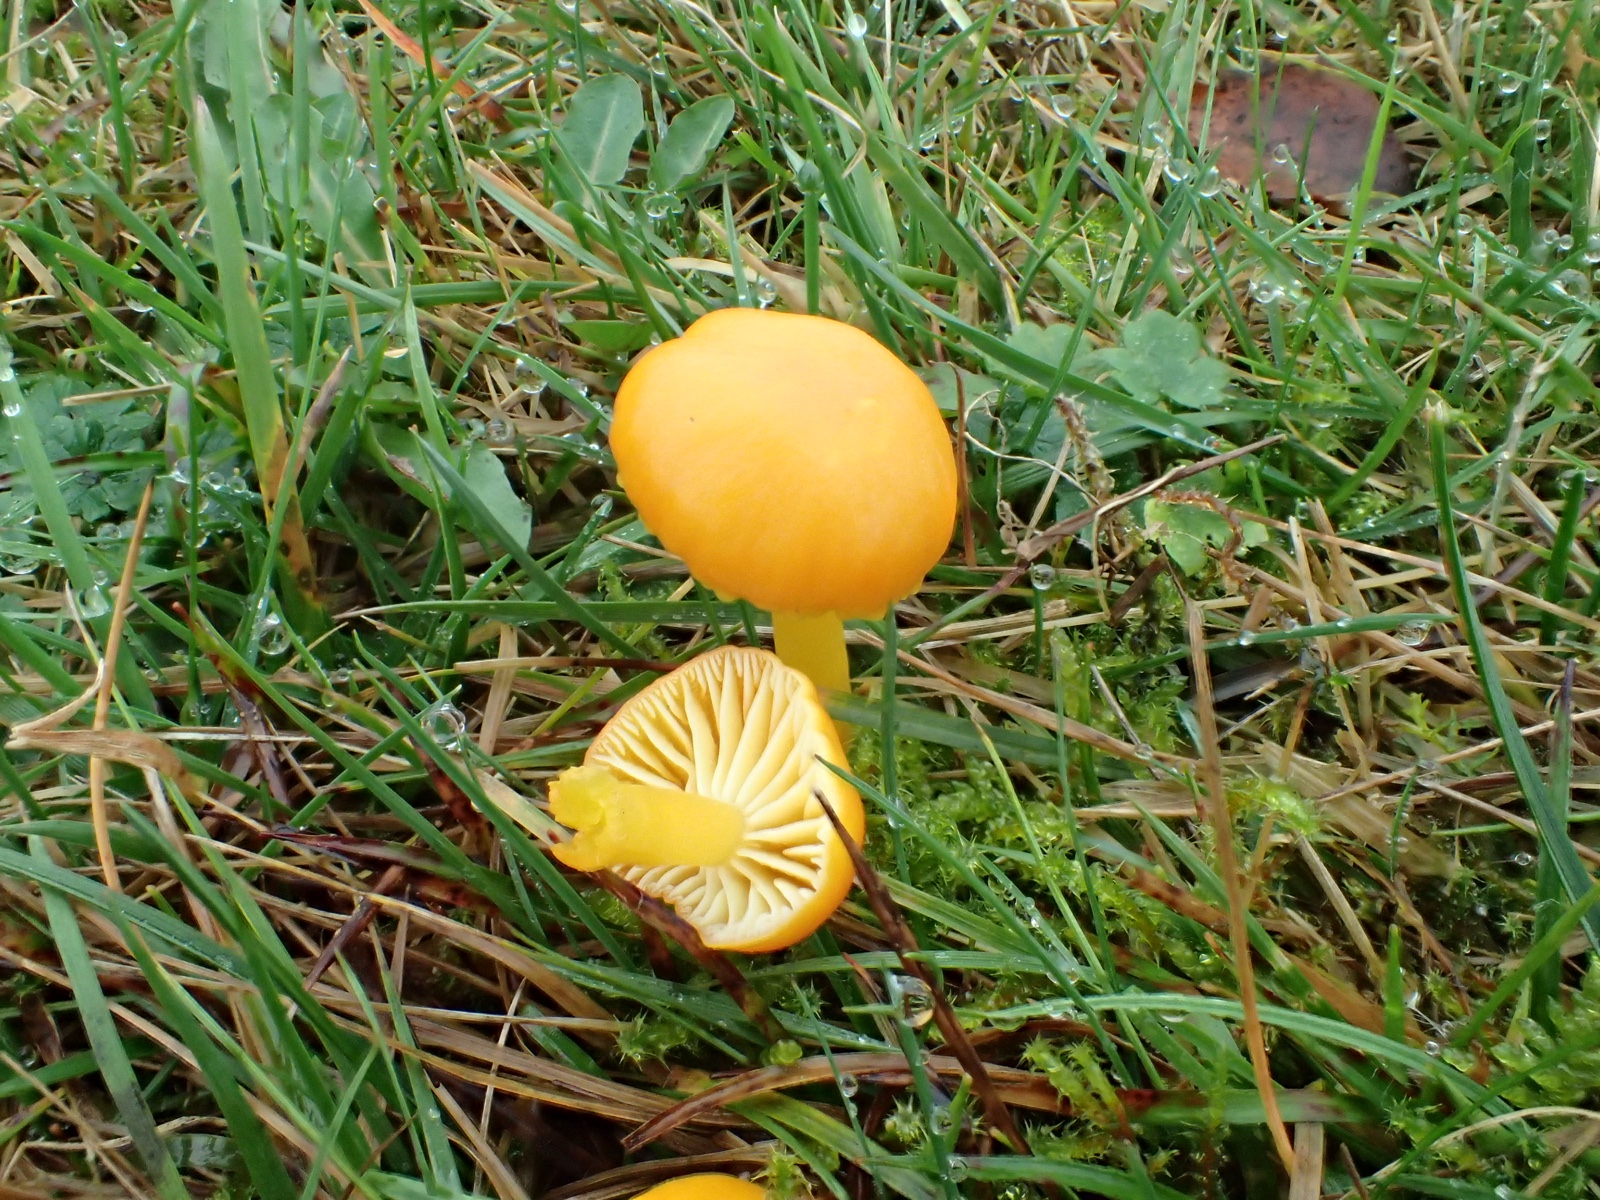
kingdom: Fungi
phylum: Basidiomycota
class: Agaricomycetes
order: Agaricales
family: Hygrophoraceae
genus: Hygrocybe
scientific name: Hygrocybe ceracea
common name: voksgul vokshat
